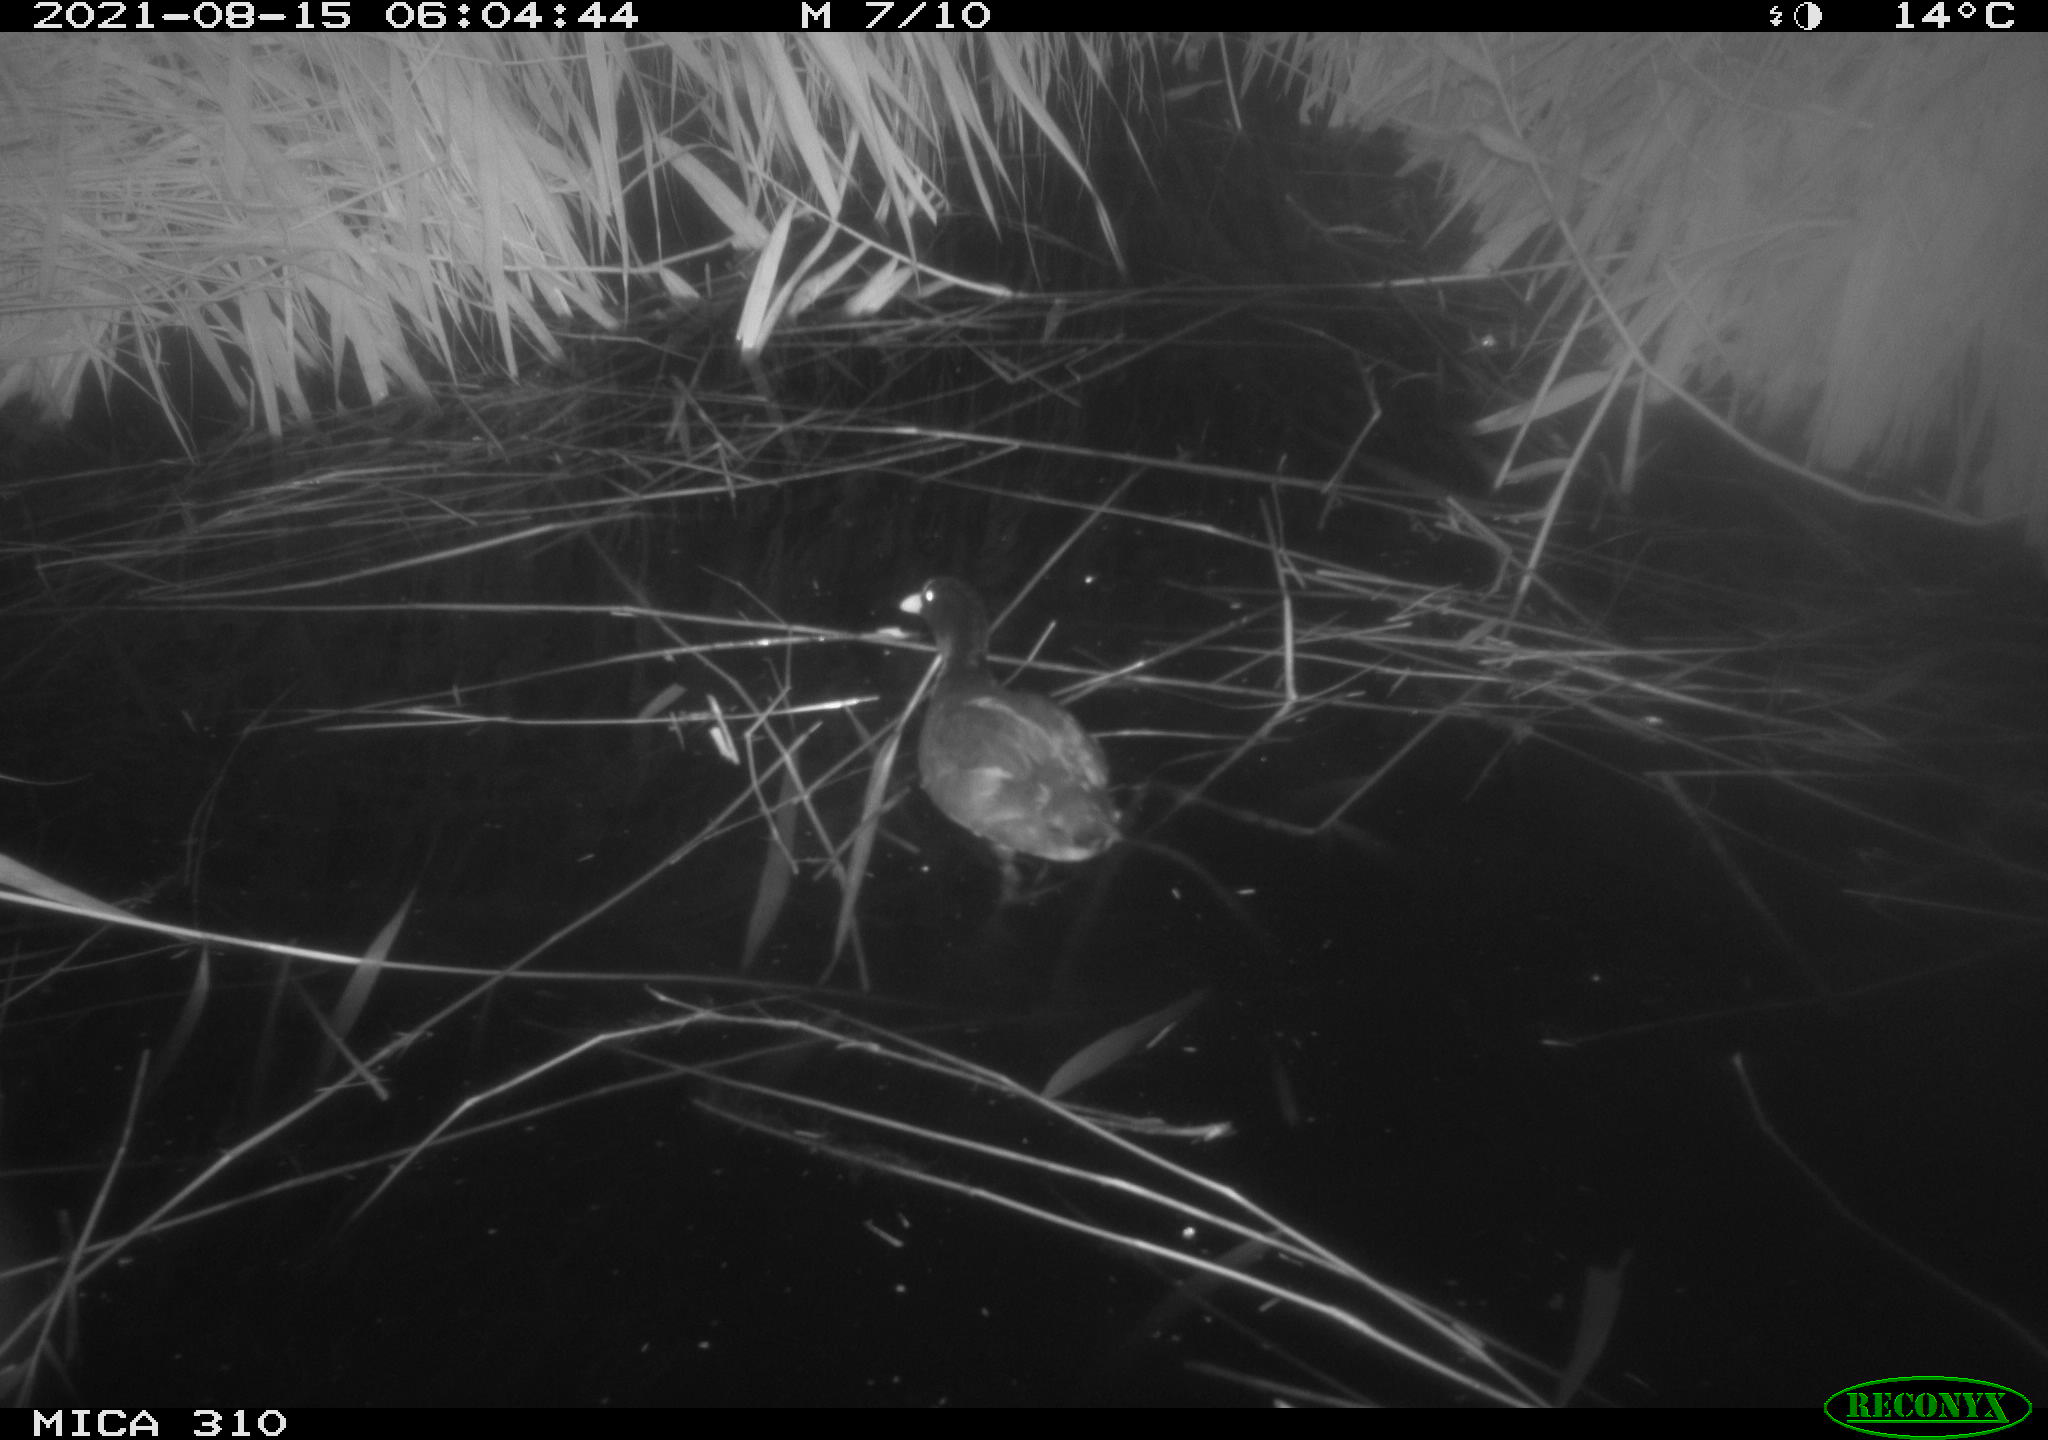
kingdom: Animalia
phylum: Chordata
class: Aves
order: Gruiformes
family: Rallidae
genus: Gallinula
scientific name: Gallinula chloropus
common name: Common moorhen
